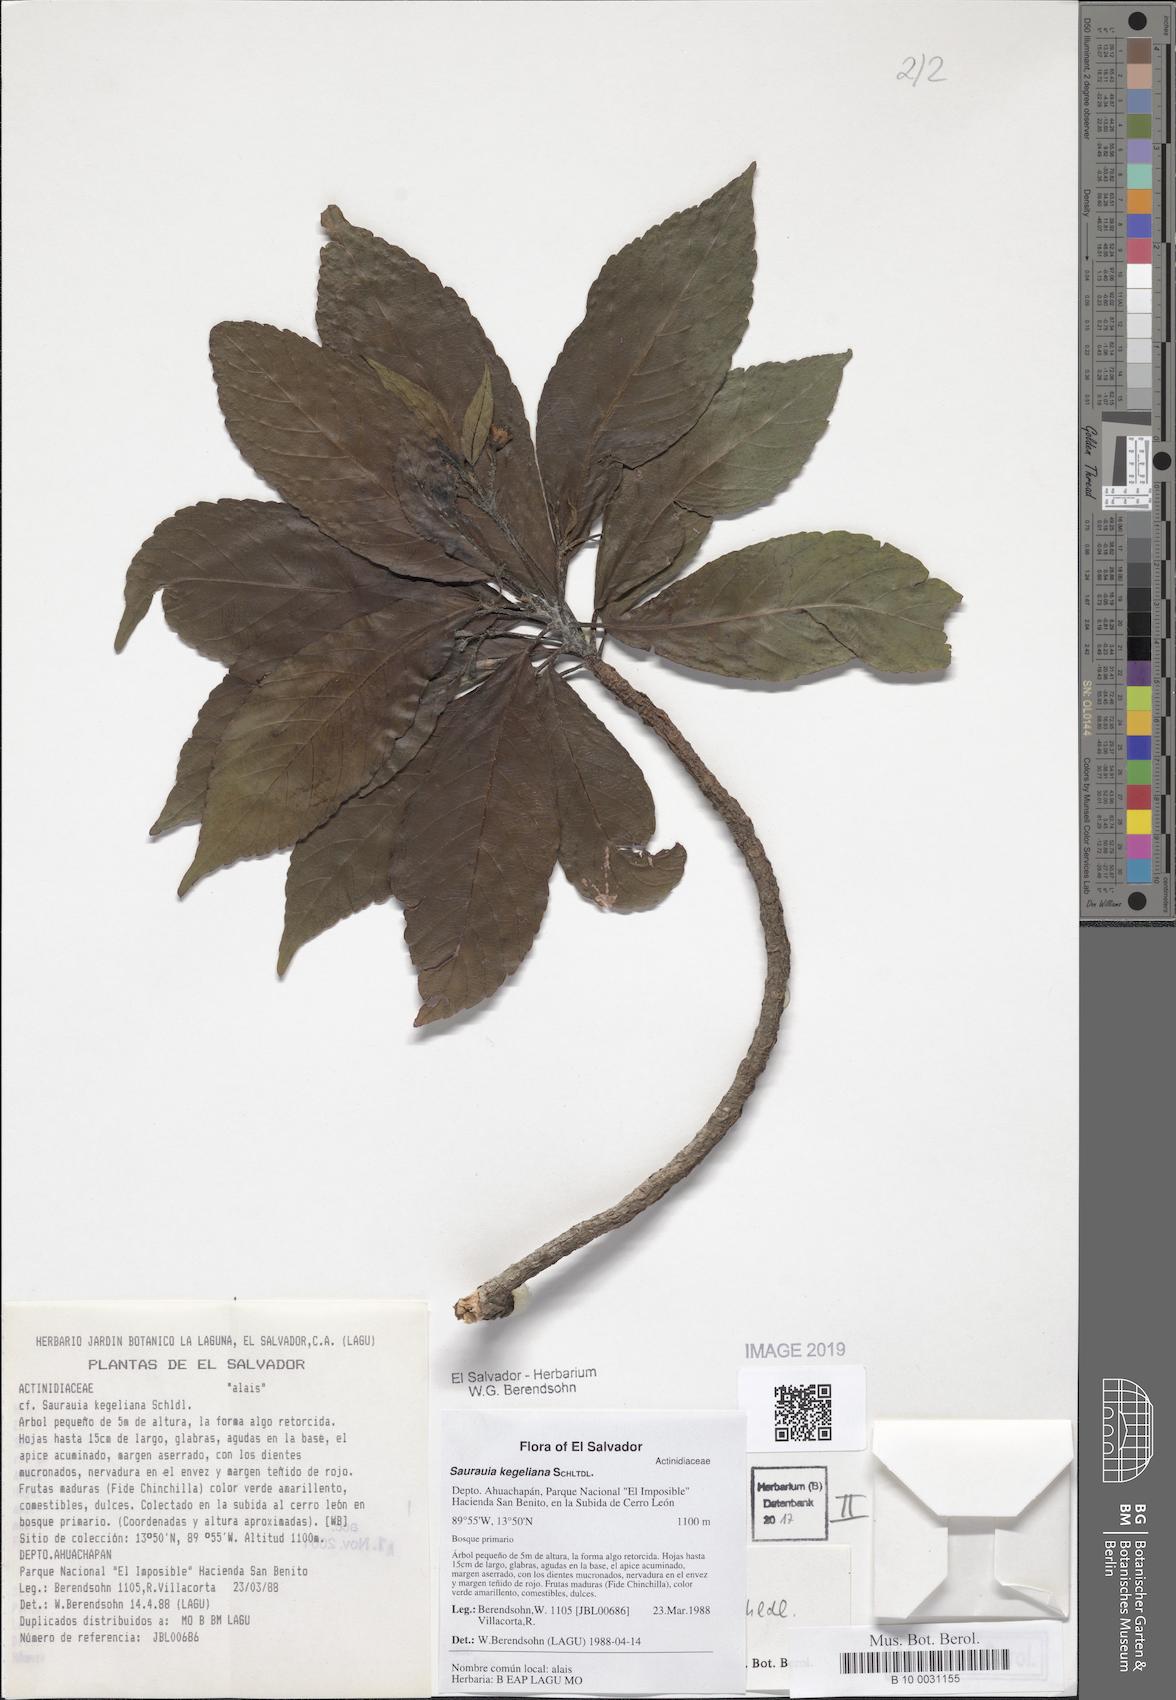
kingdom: Plantae
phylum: Tracheophyta
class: Magnoliopsida
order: Ericales
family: Actinidiaceae
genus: Saurauia
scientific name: Saurauia kegeliana
